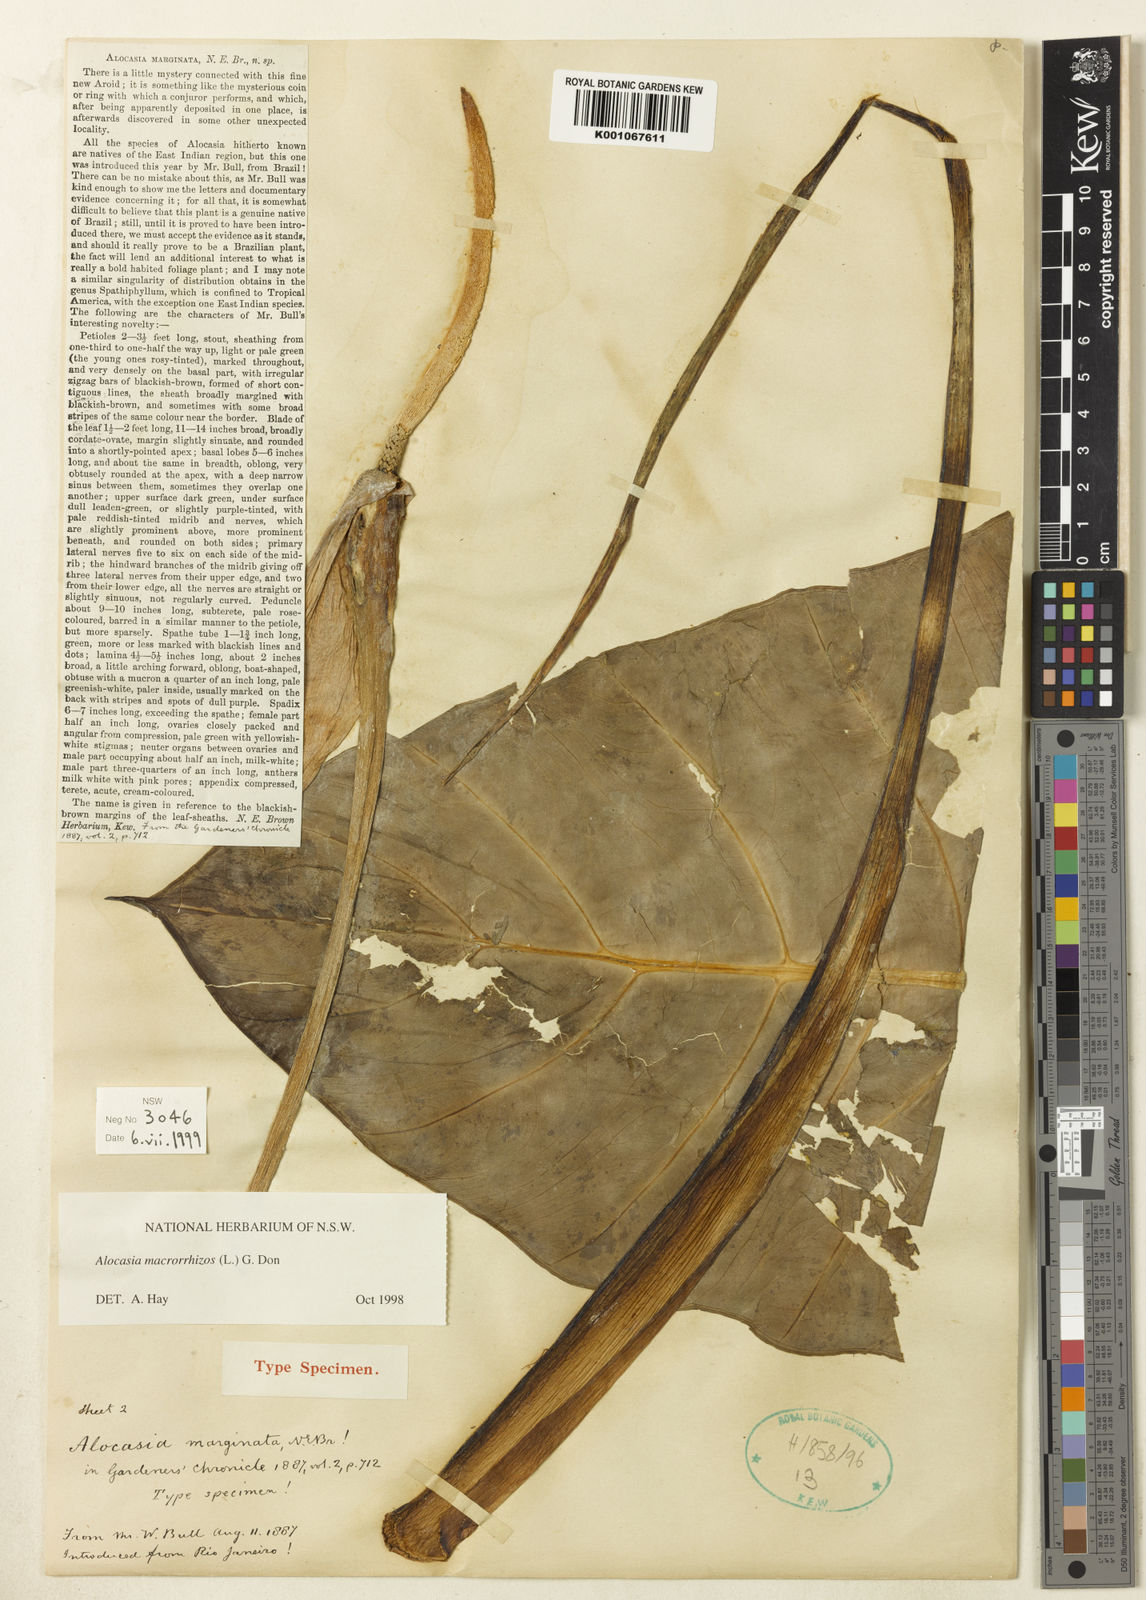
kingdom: Plantae
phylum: Tracheophyta
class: Liliopsida
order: Alismatales
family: Araceae
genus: Alocasia
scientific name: Alocasia macrorrhizos
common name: Giant taro
